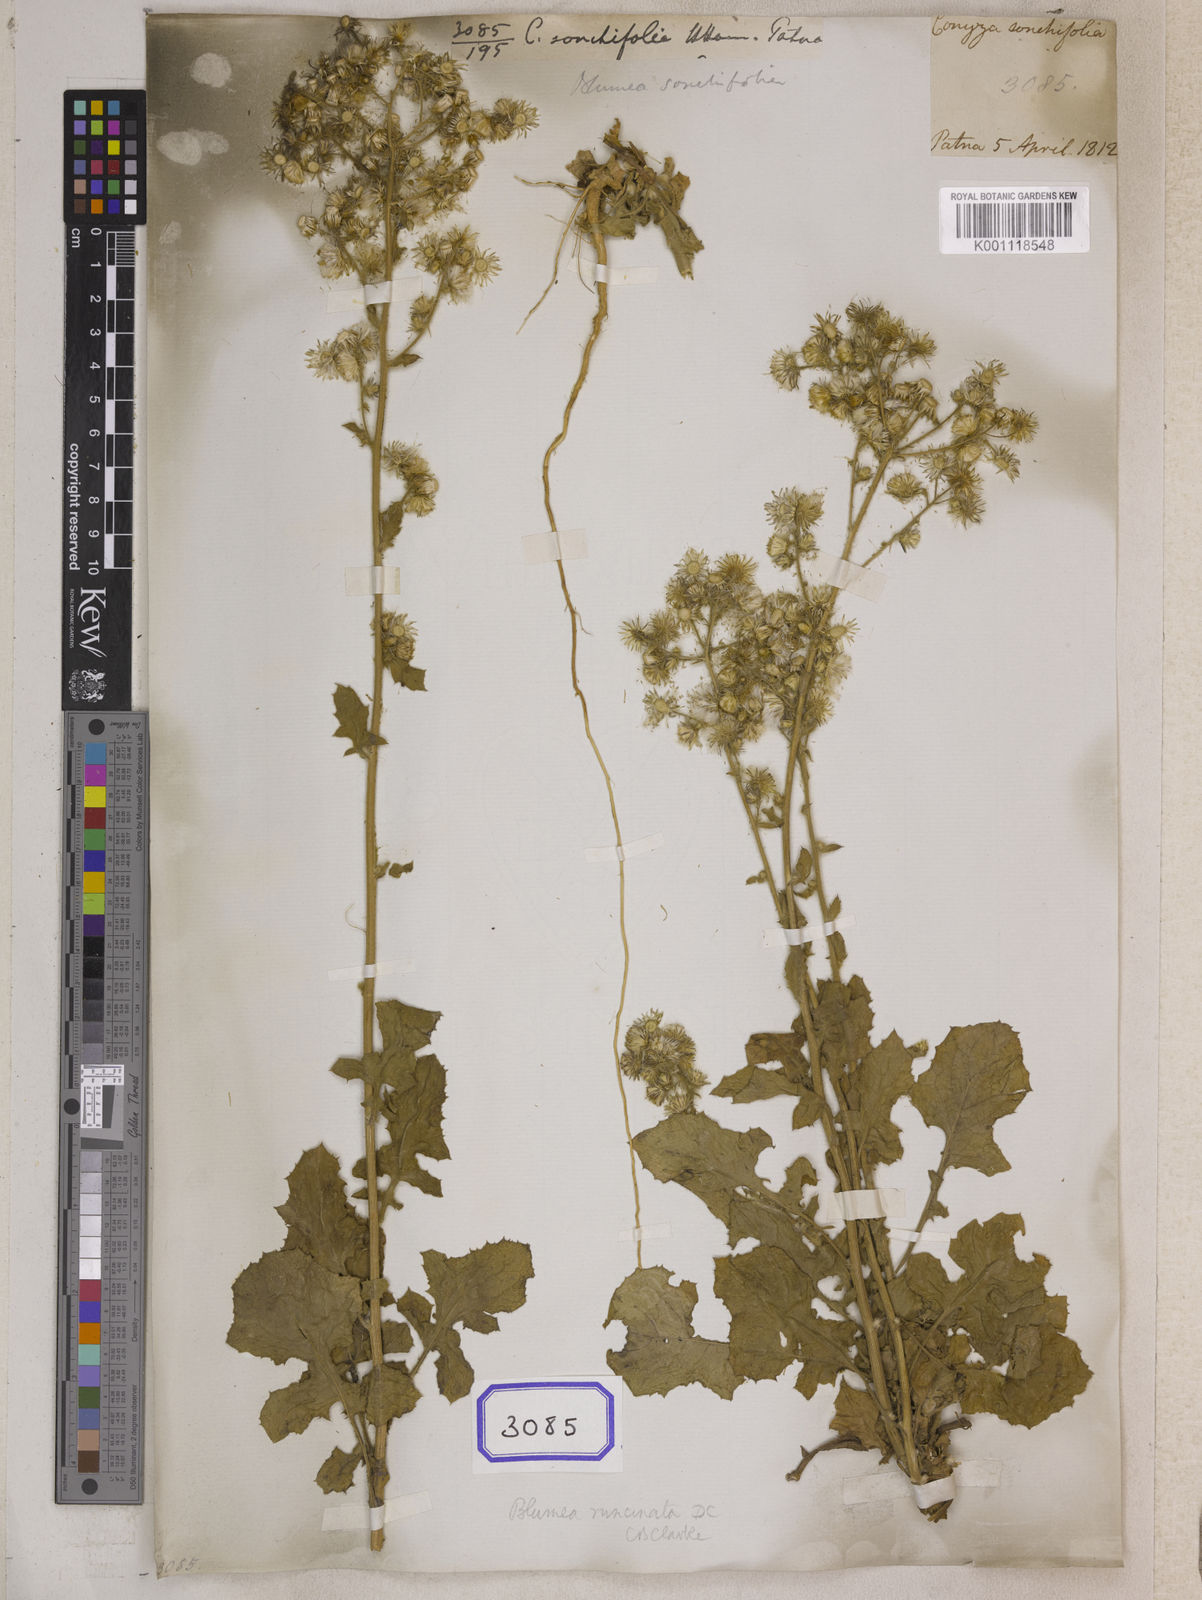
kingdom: Plantae
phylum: Tracheophyta
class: Magnoliopsida
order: Asterales
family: Asteraceae
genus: Blumea
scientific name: Blumea sinuata
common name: Cutleaf false oxtongue
